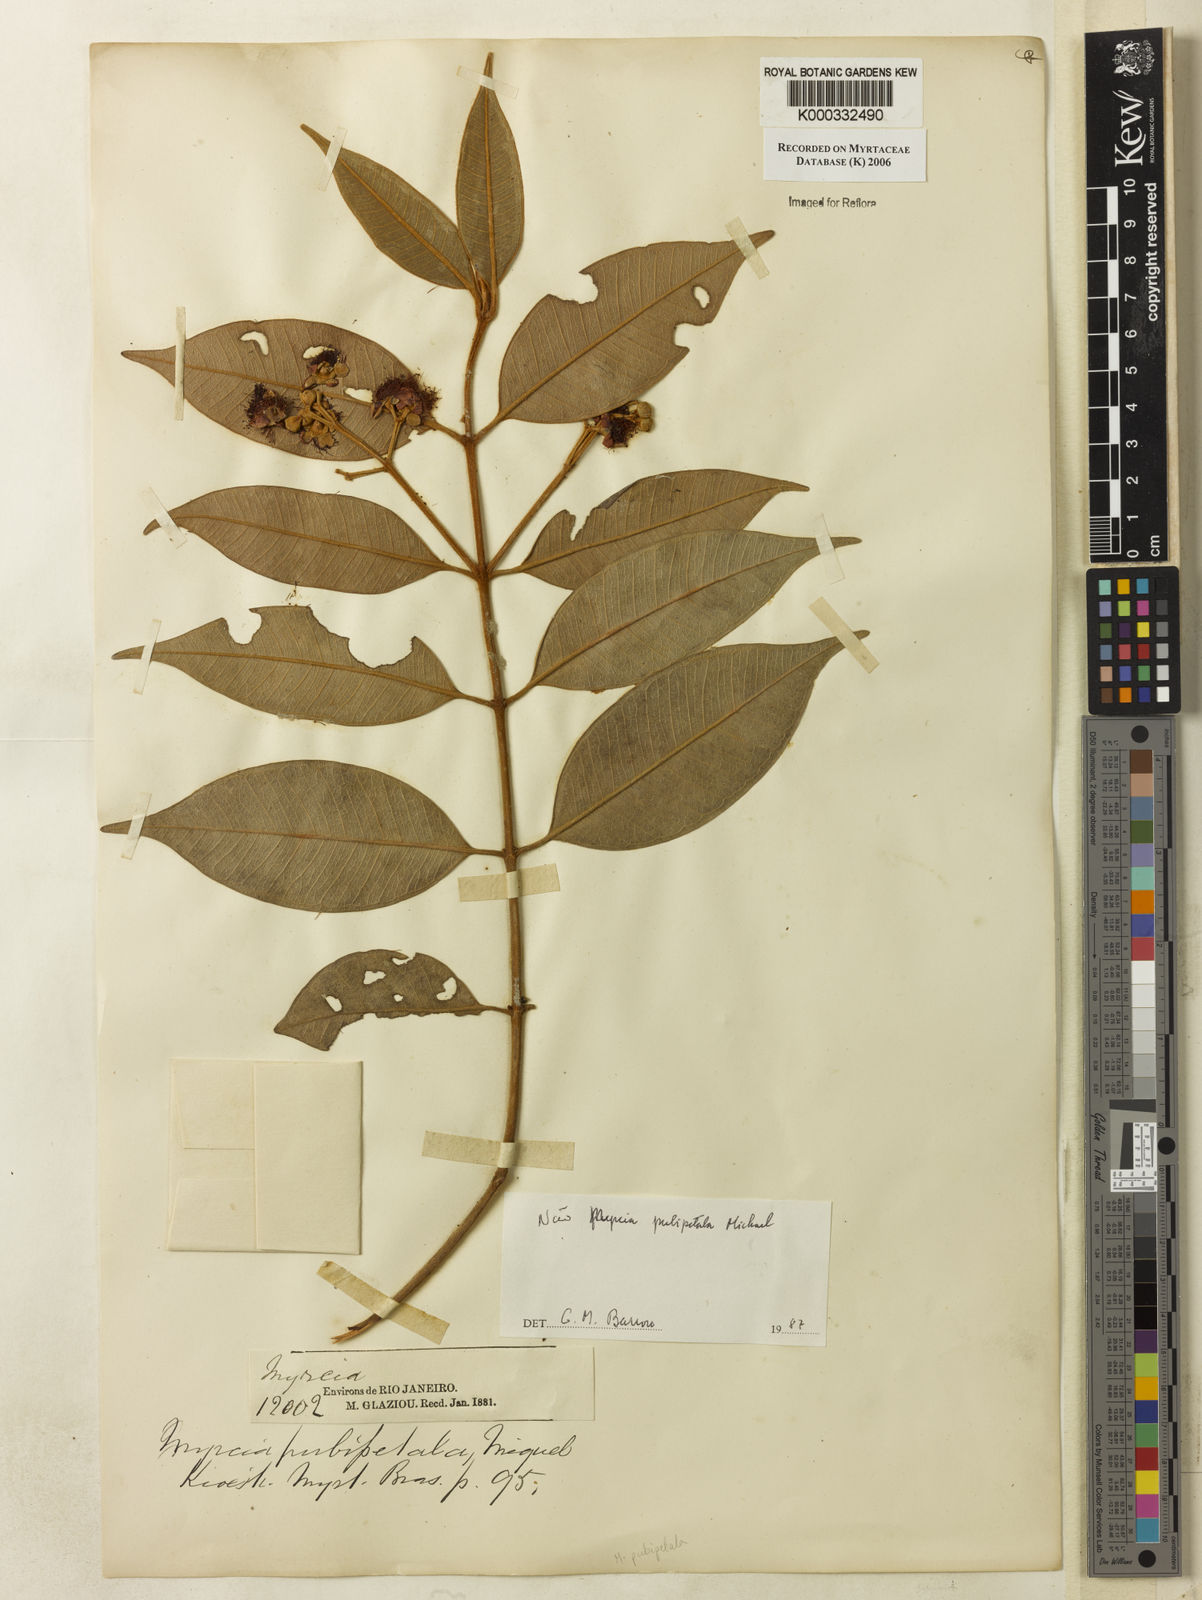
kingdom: Plantae
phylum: Tracheophyta
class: Magnoliopsida
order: Myrtales
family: Myrtaceae
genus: Myrcia
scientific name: Myrcia pubipetala
